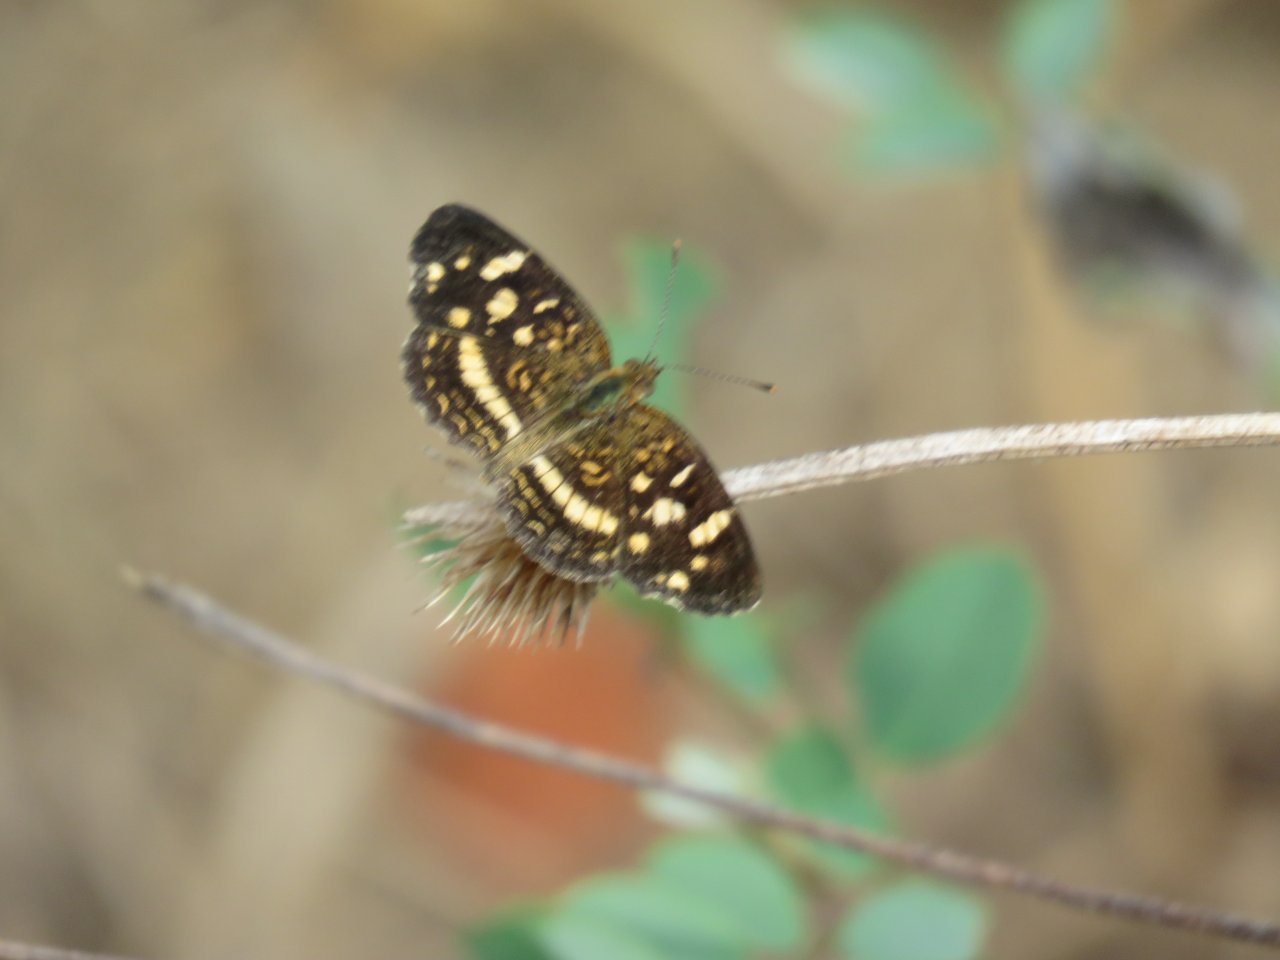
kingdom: Animalia
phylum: Arthropoda
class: Insecta
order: Lepidoptera
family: Nymphalidae
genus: Anthanassa
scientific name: Anthanassa tulcis
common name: Pale-banded Crescent
